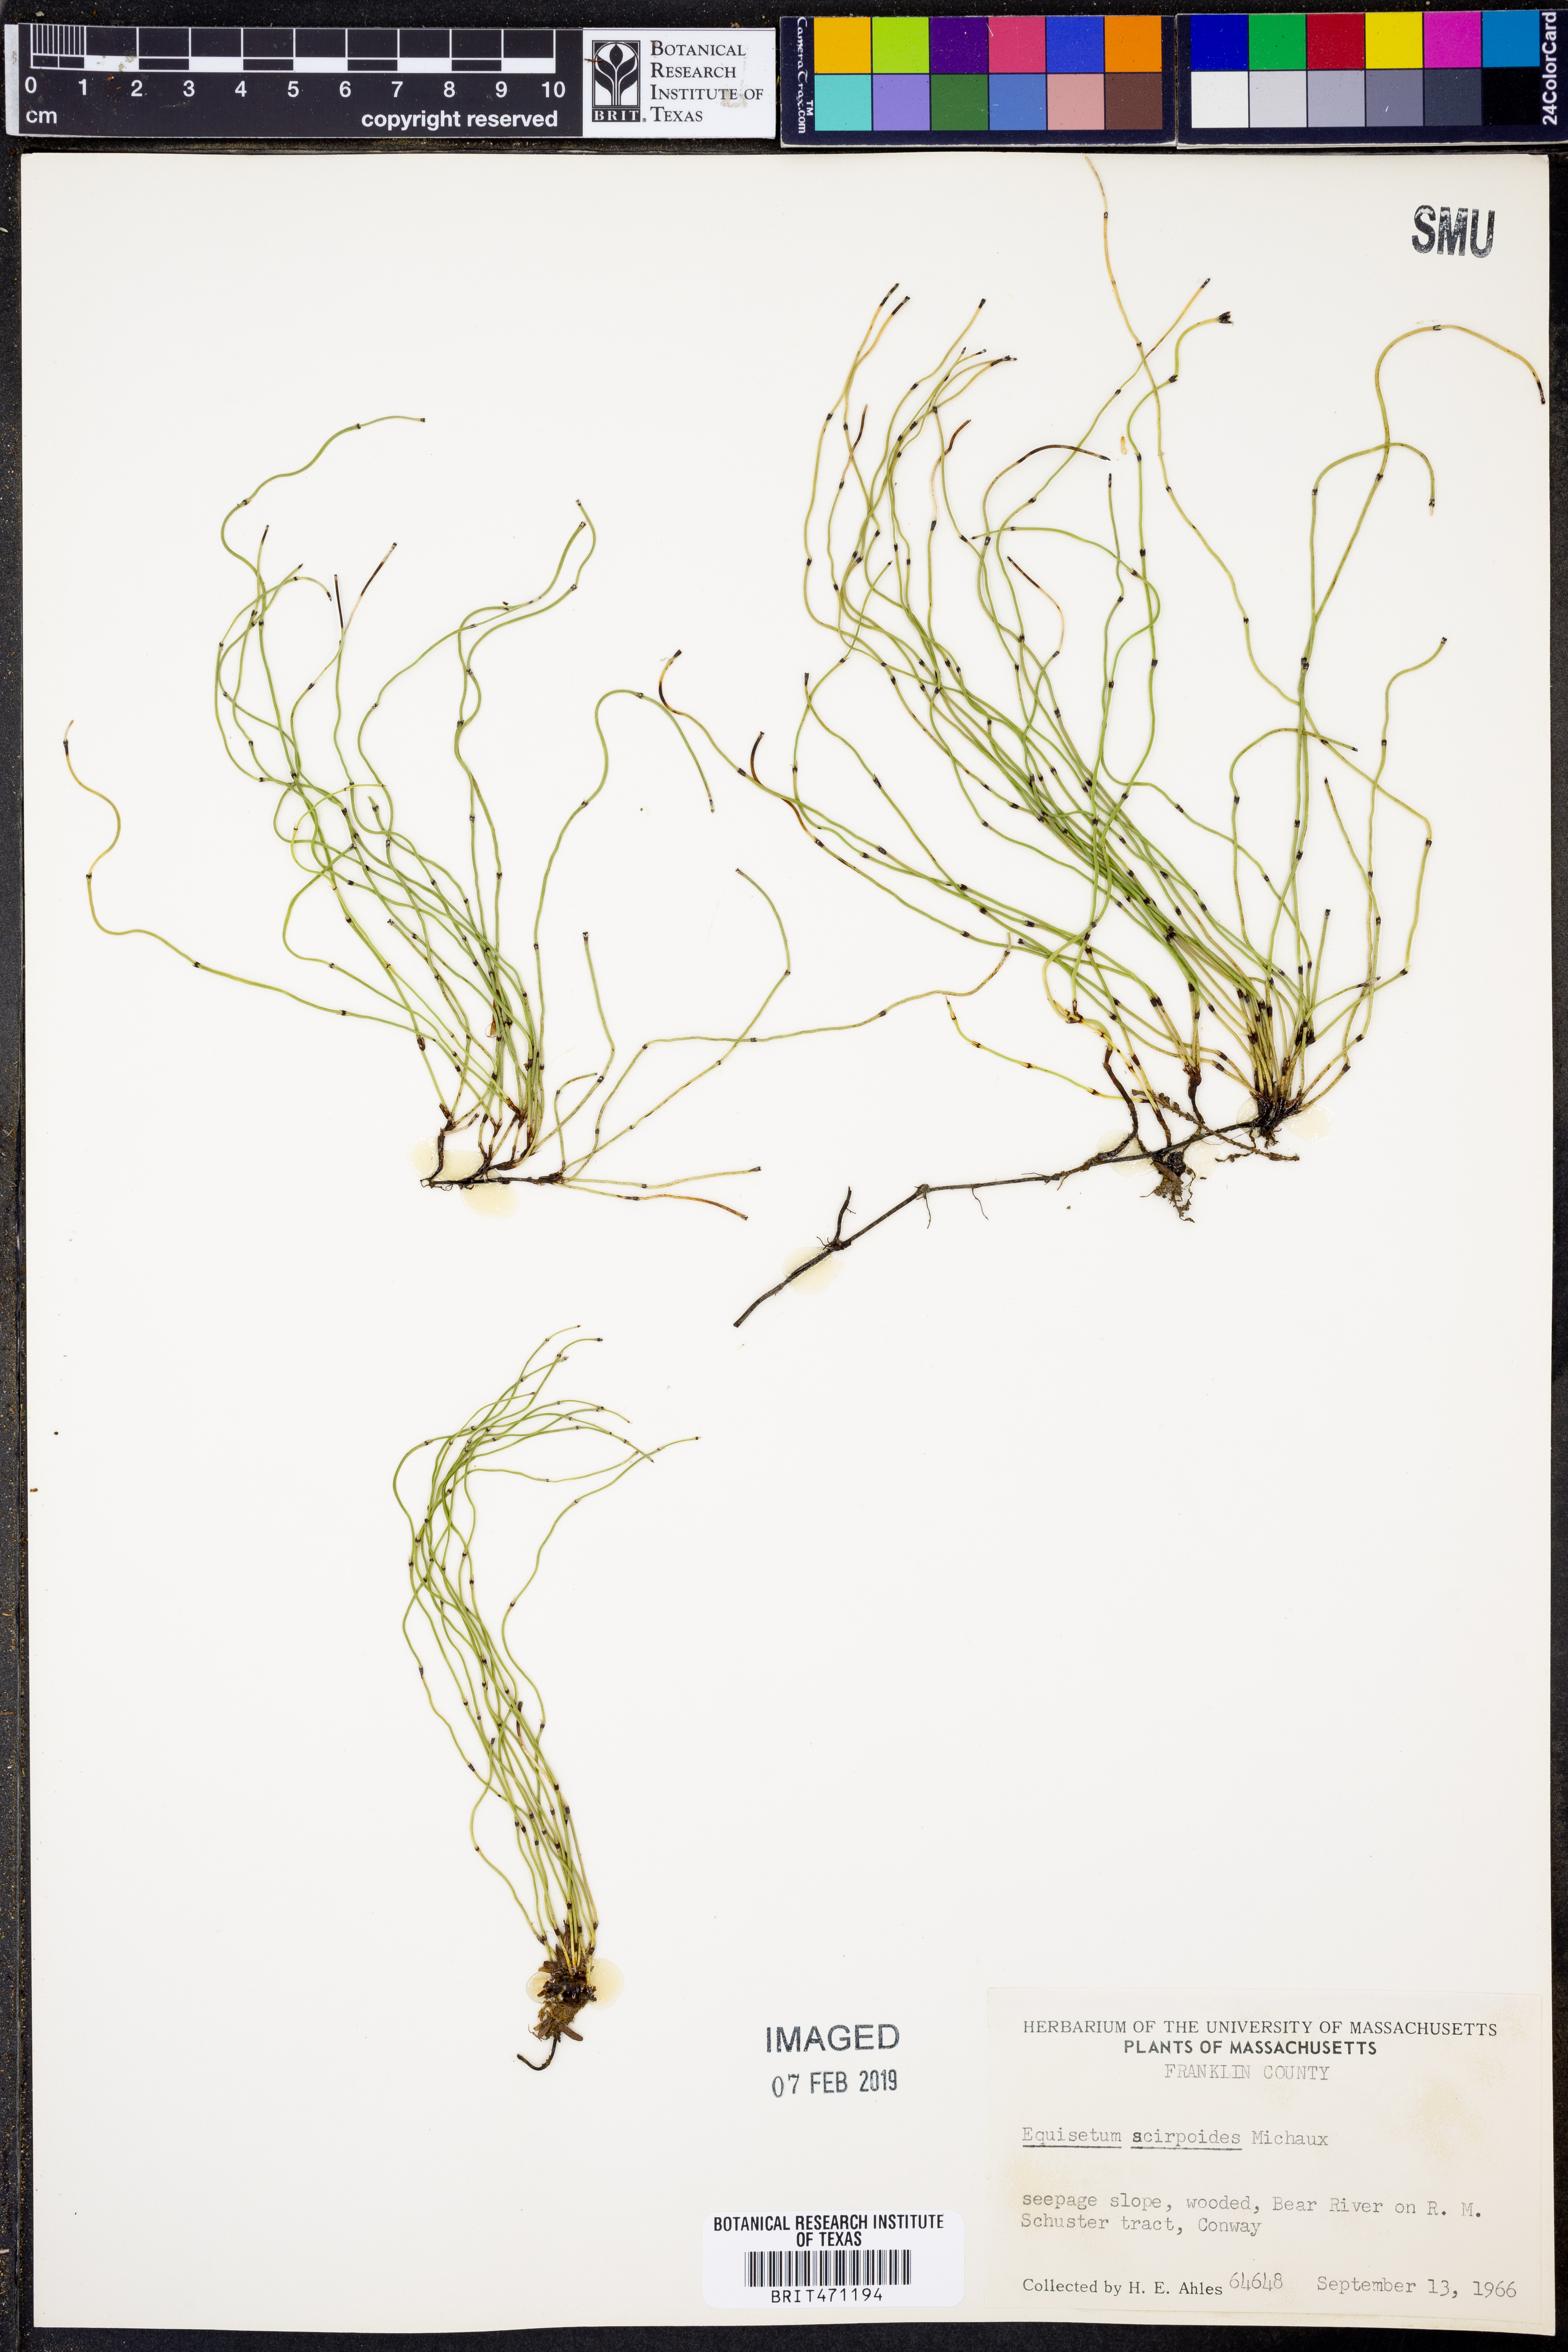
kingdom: Plantae
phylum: Tracheophyta
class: Polypodiopsida
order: Equisetales
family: Equisetaceae
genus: Equisetum
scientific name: Equisetum scirpoides
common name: Delicate horsetail
